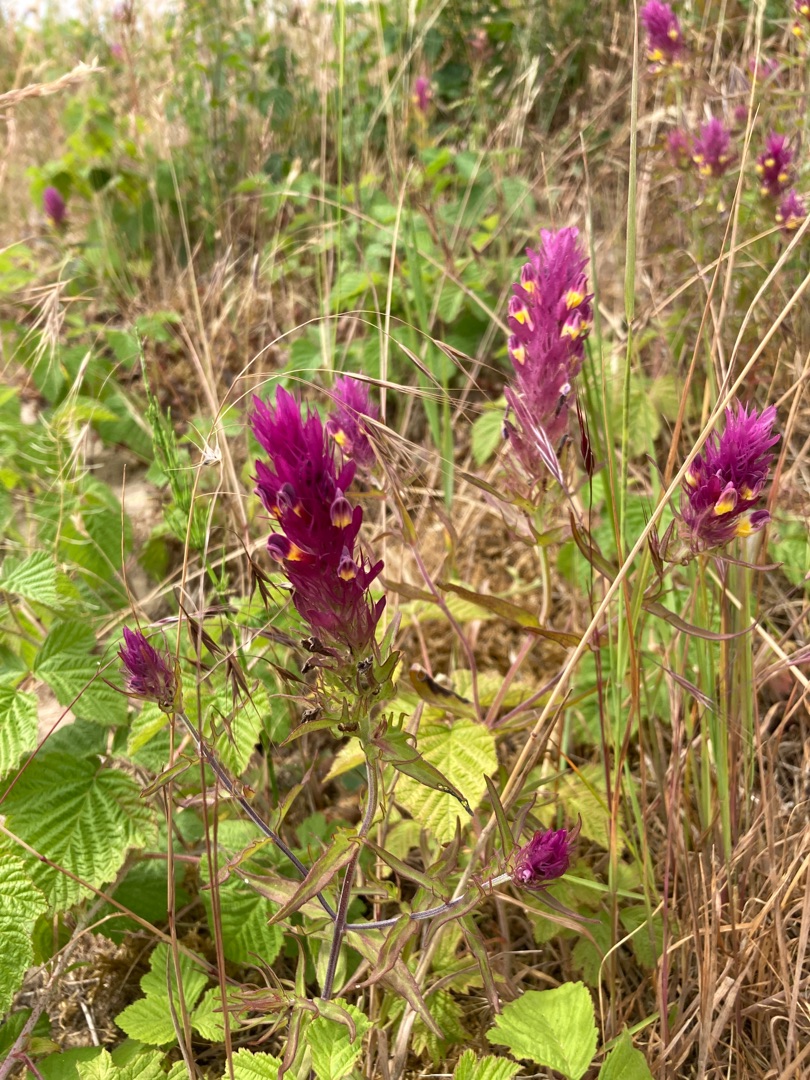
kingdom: Plantae
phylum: Tracheophyta
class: Magnoliopsida
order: Lamiales
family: Orobanchaceae
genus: Melampyrum
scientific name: Melampyrum arvense
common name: Ager-kohvede
